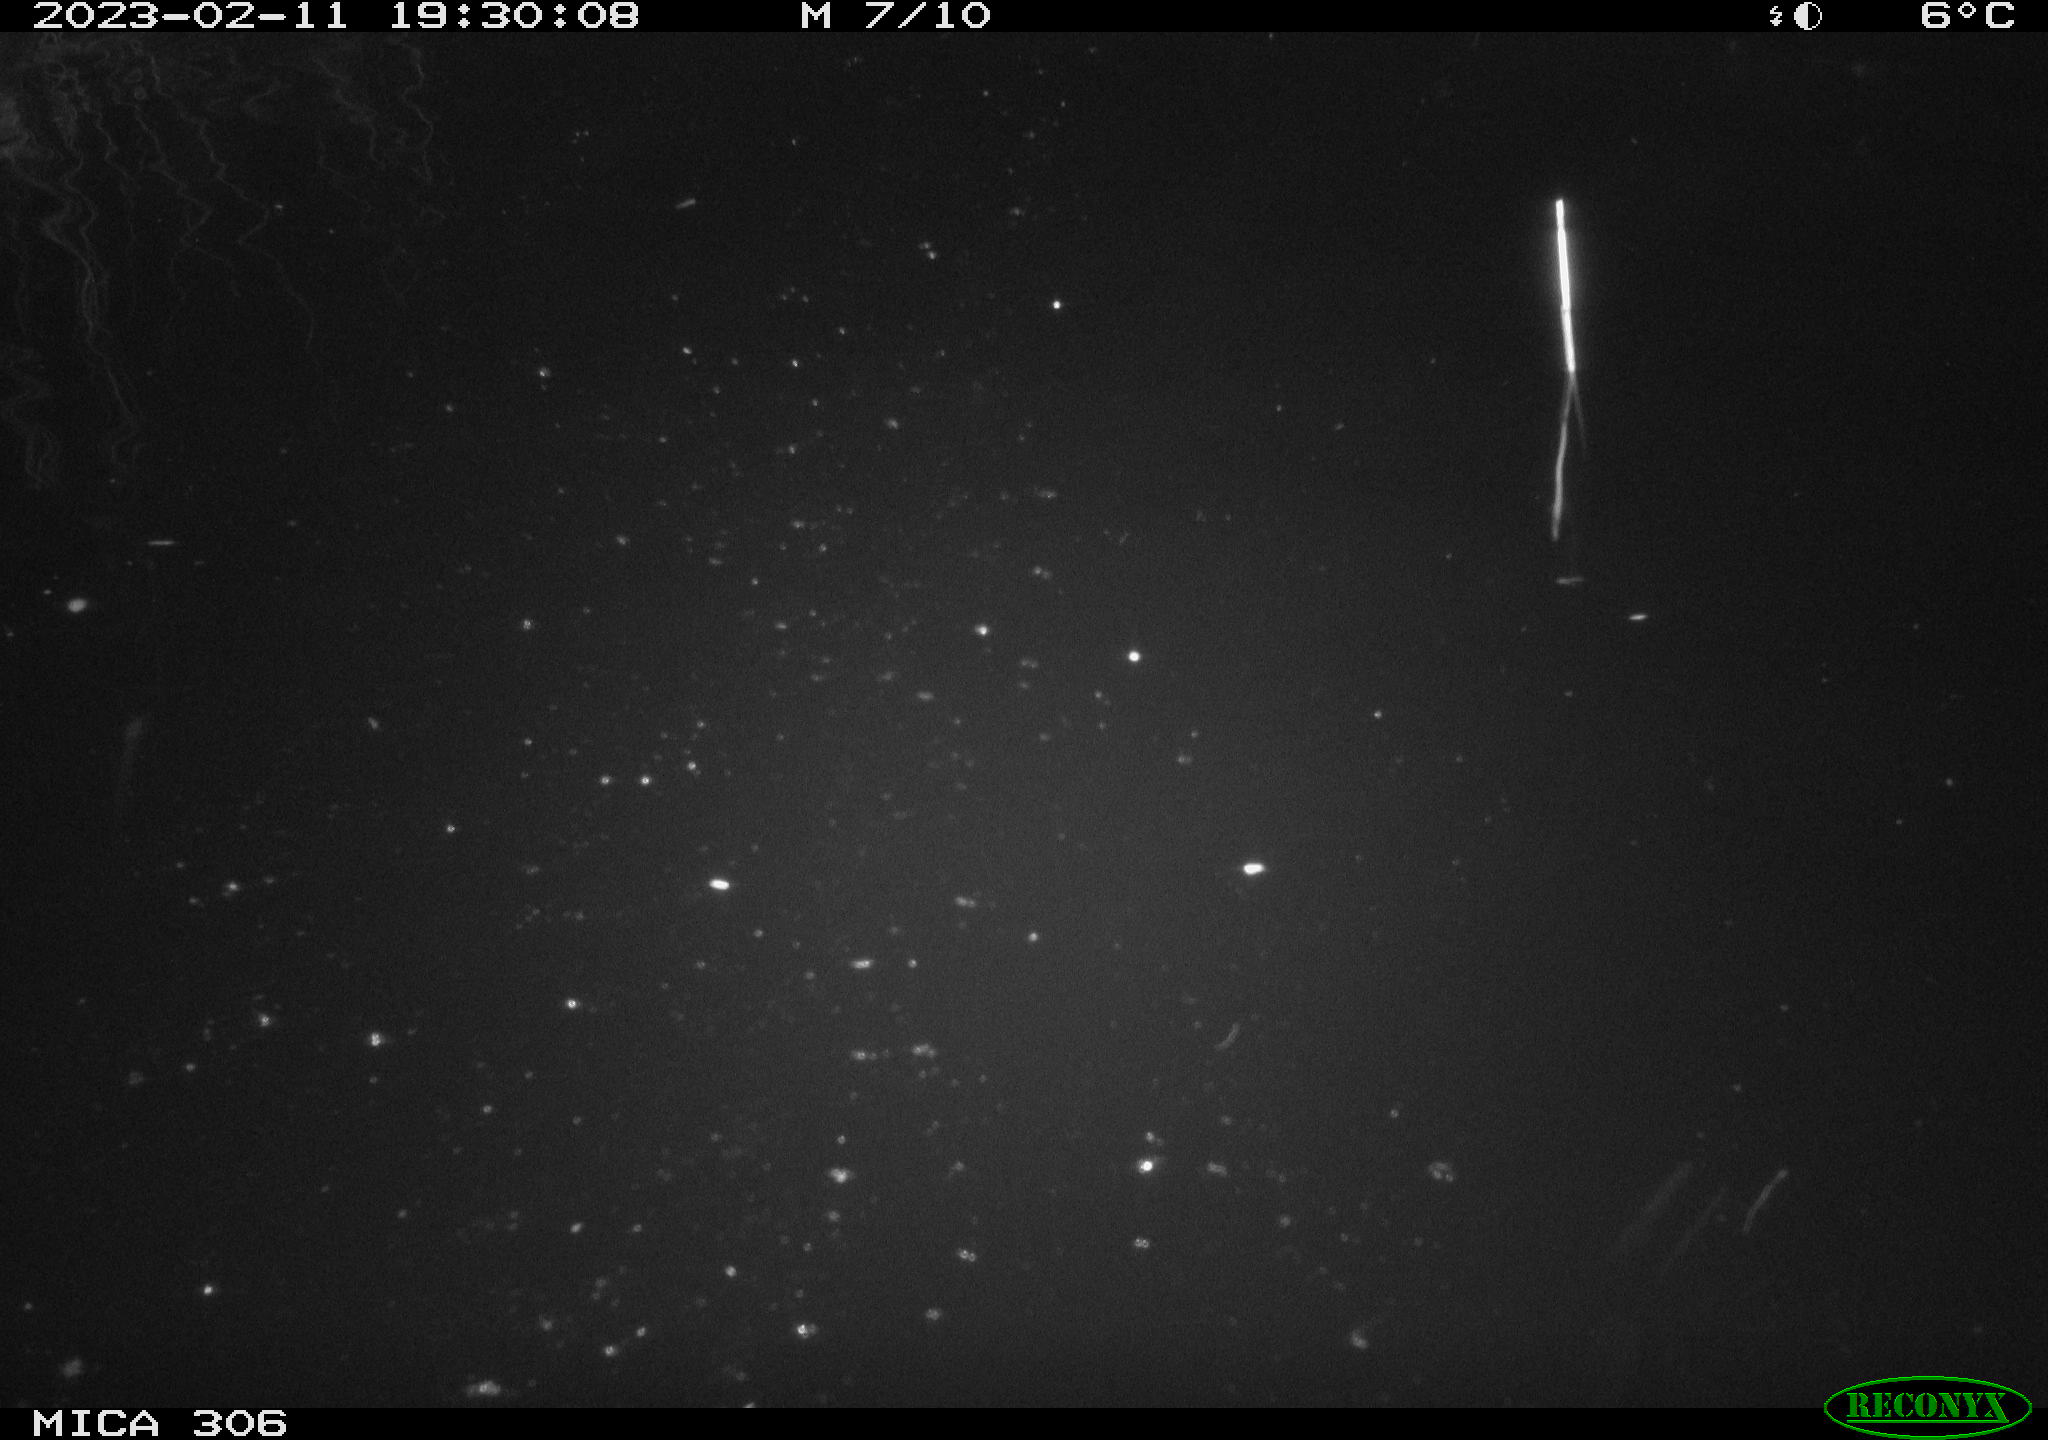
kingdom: Animalia
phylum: Chordata
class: Mammalia
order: Rodentia
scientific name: Rodentia
